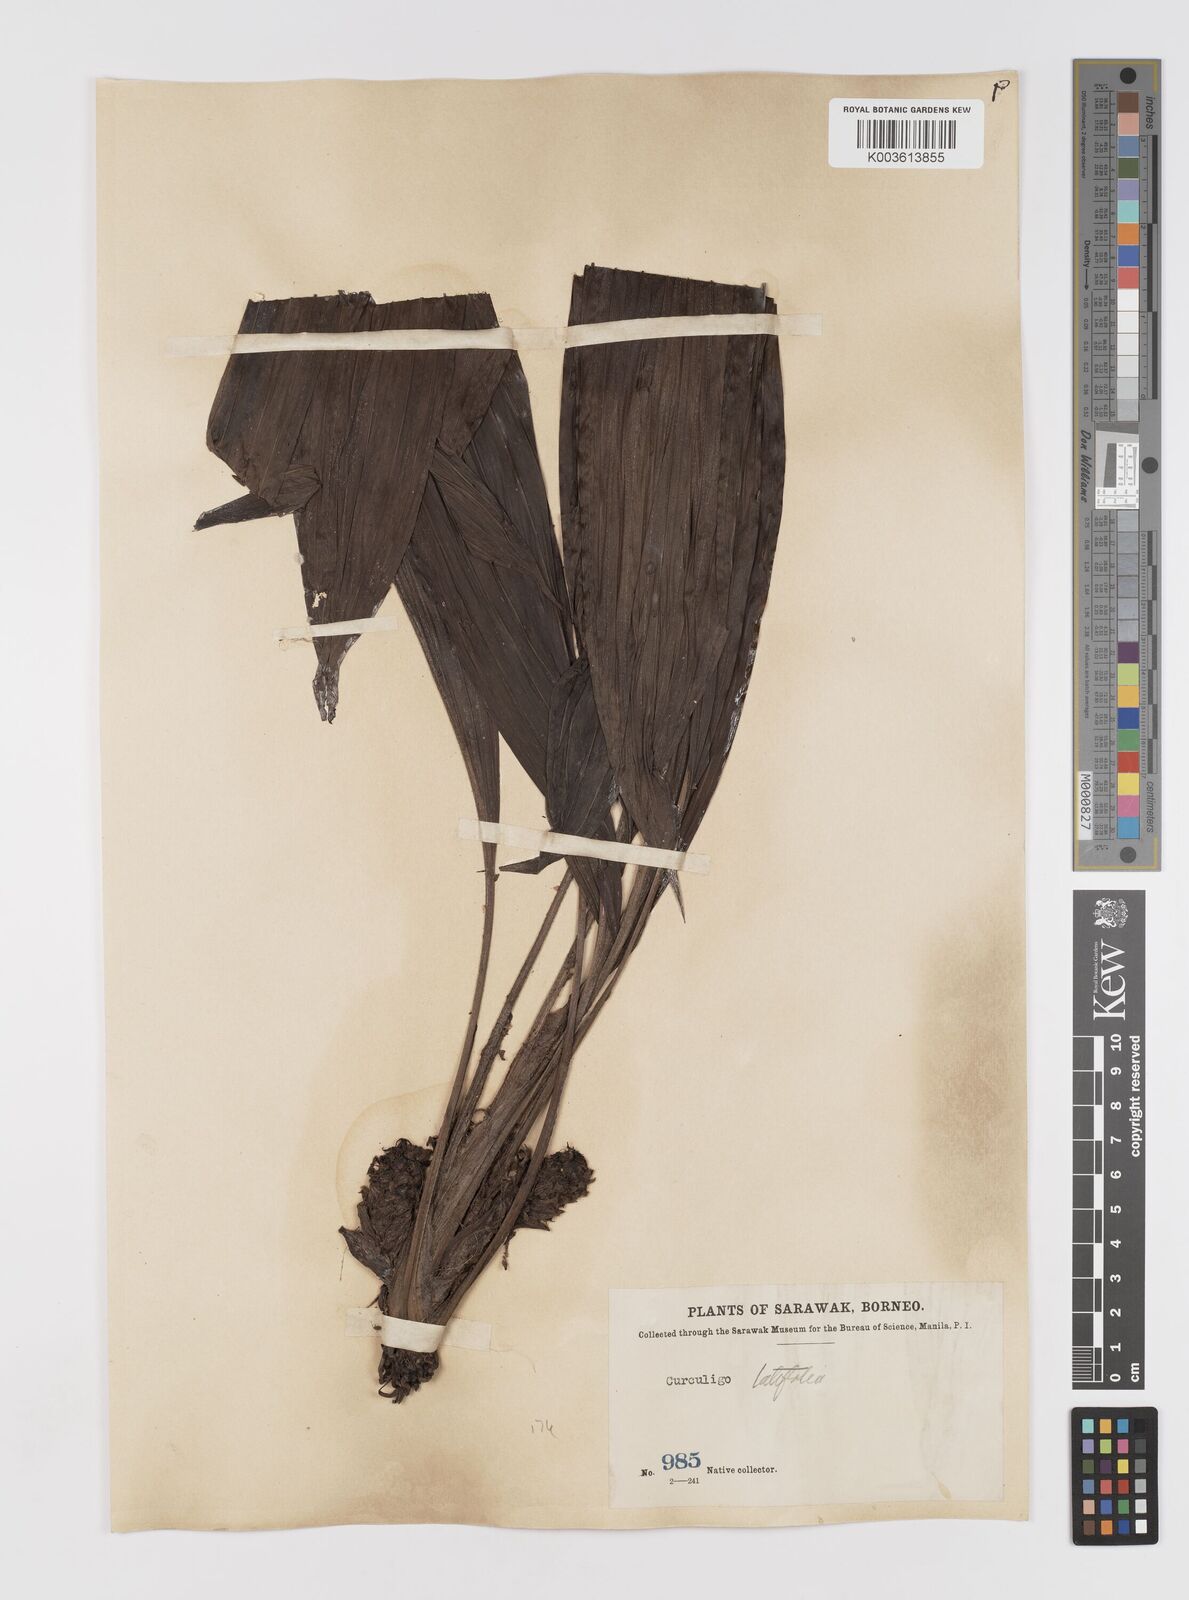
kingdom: Plantae
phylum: Tracheophyta
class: Liliopsida
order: Asparagales
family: Hypoxidaceae
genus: Curculigo
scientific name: Curculigo latifolia
